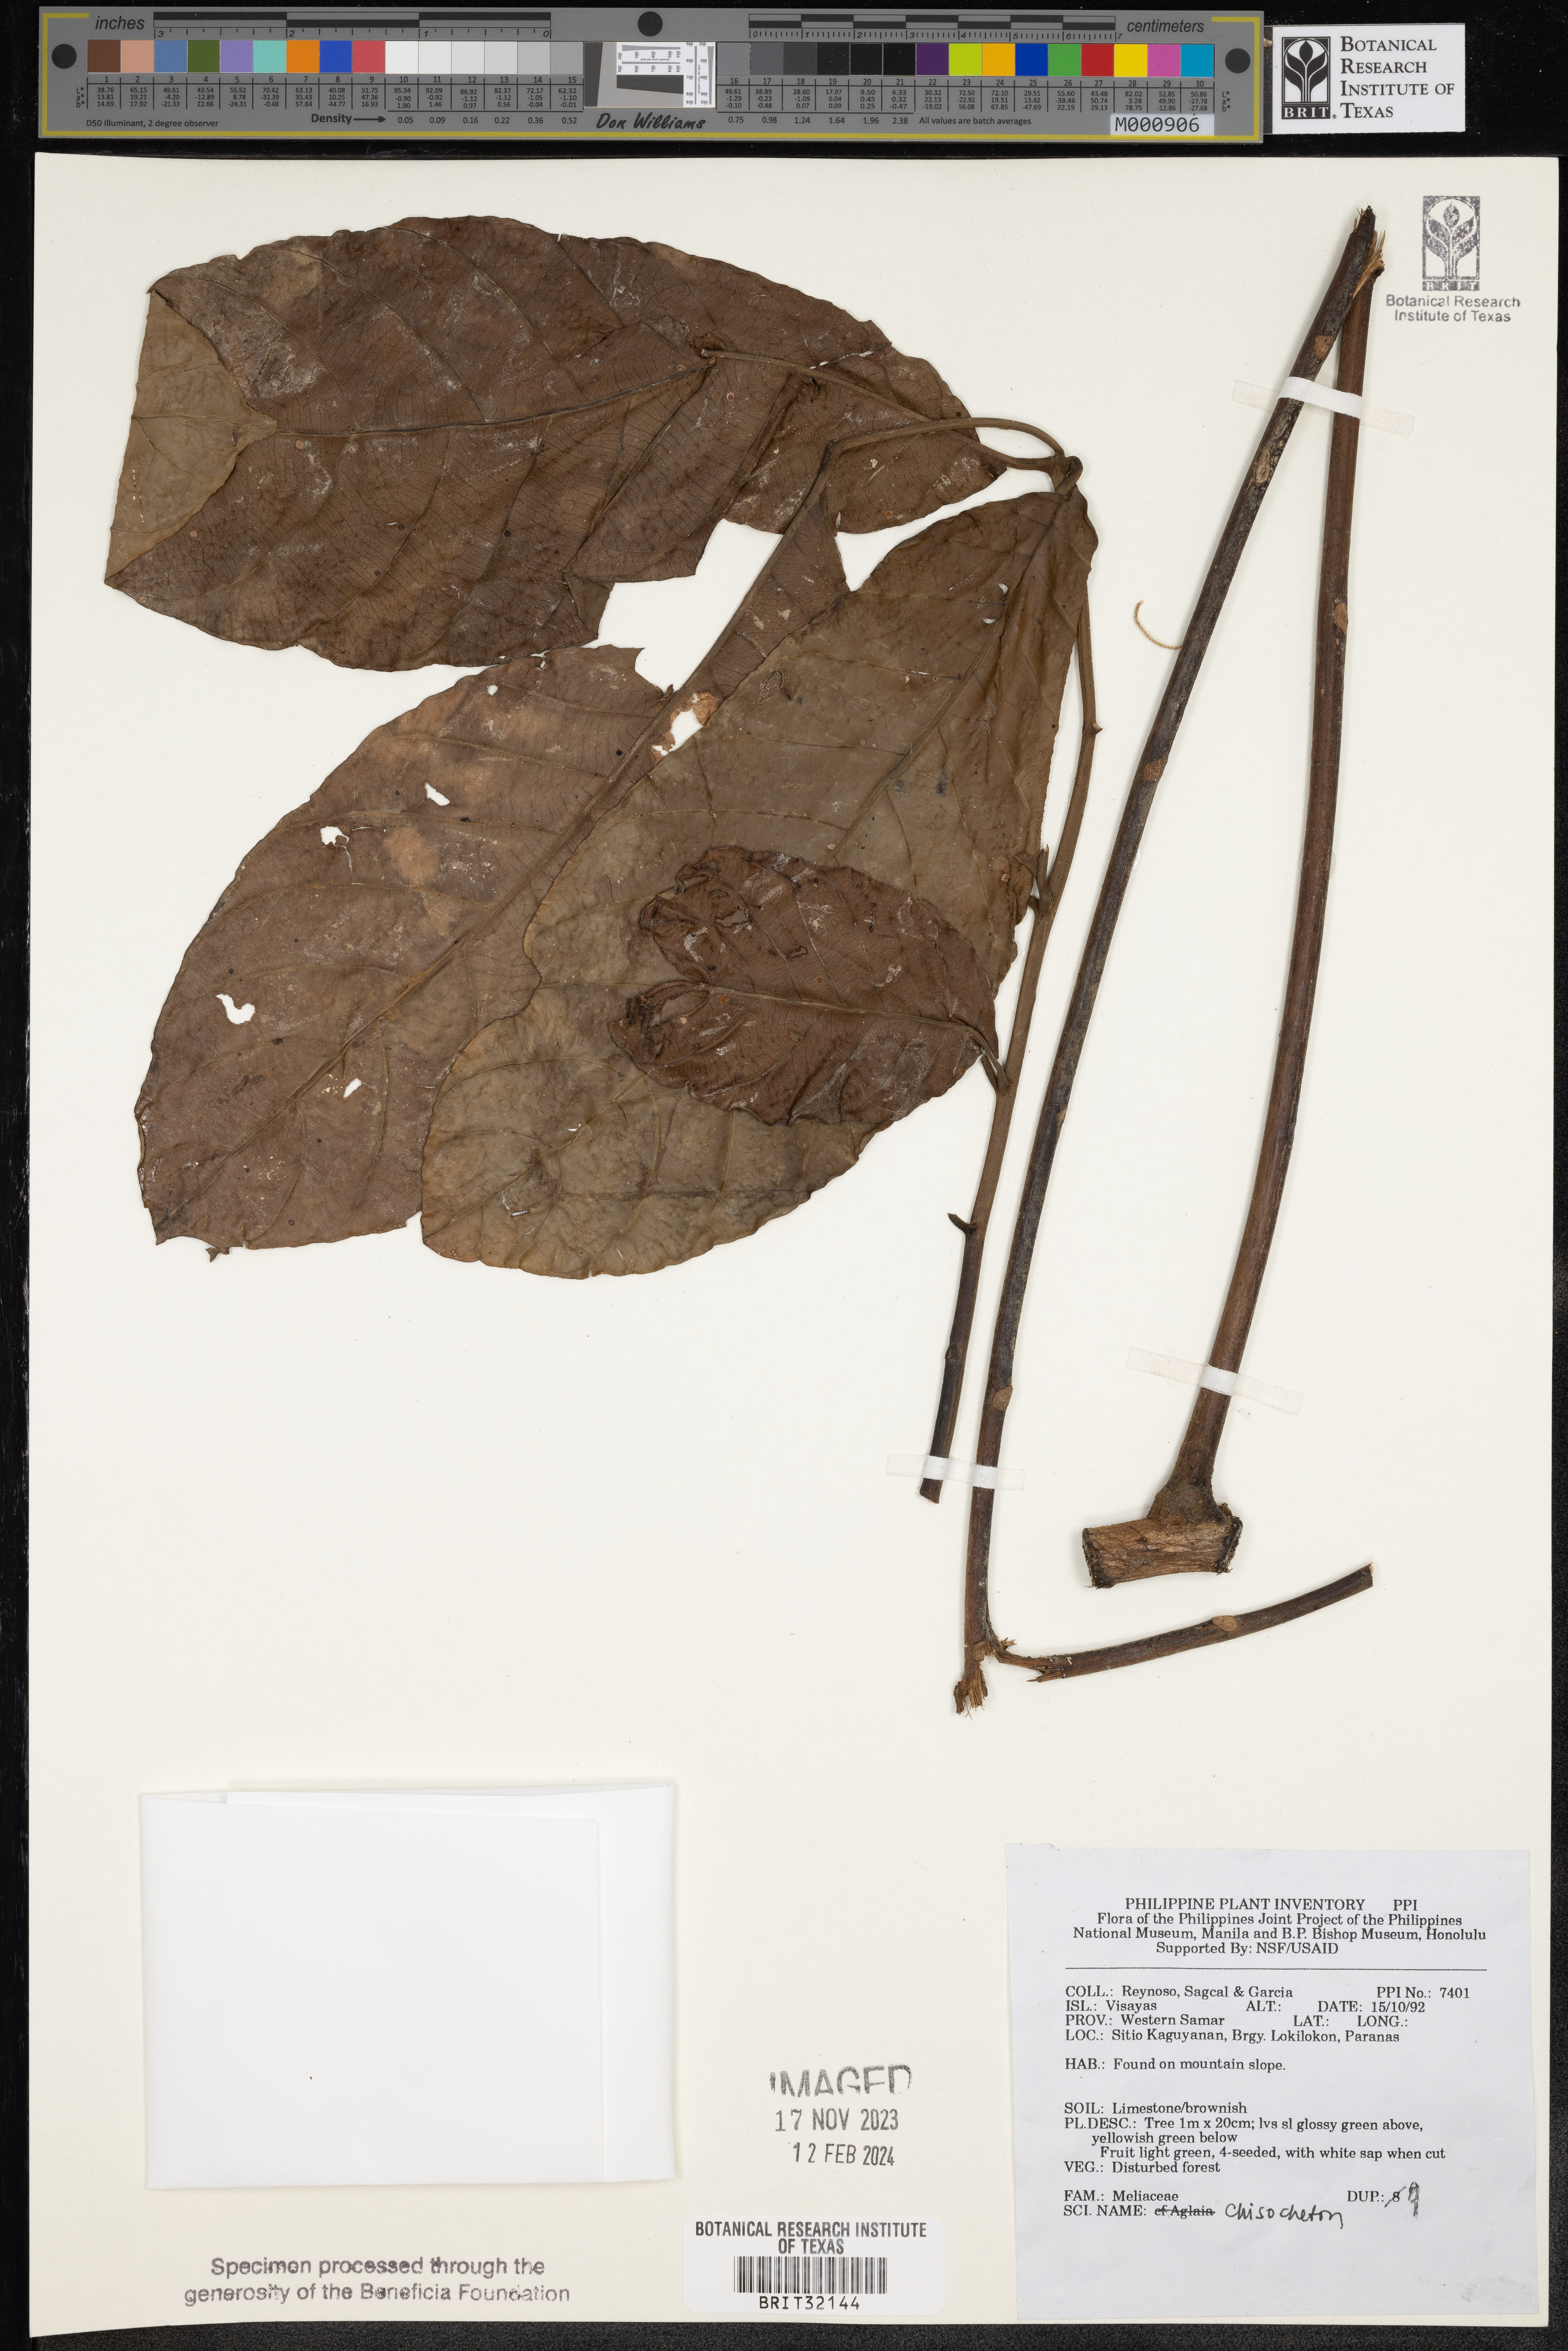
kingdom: Plantae
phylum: Tracheophyta
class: Magnoliopsida
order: Sapindales
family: Meliaceae
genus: Chisocheton
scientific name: Chisocheton
